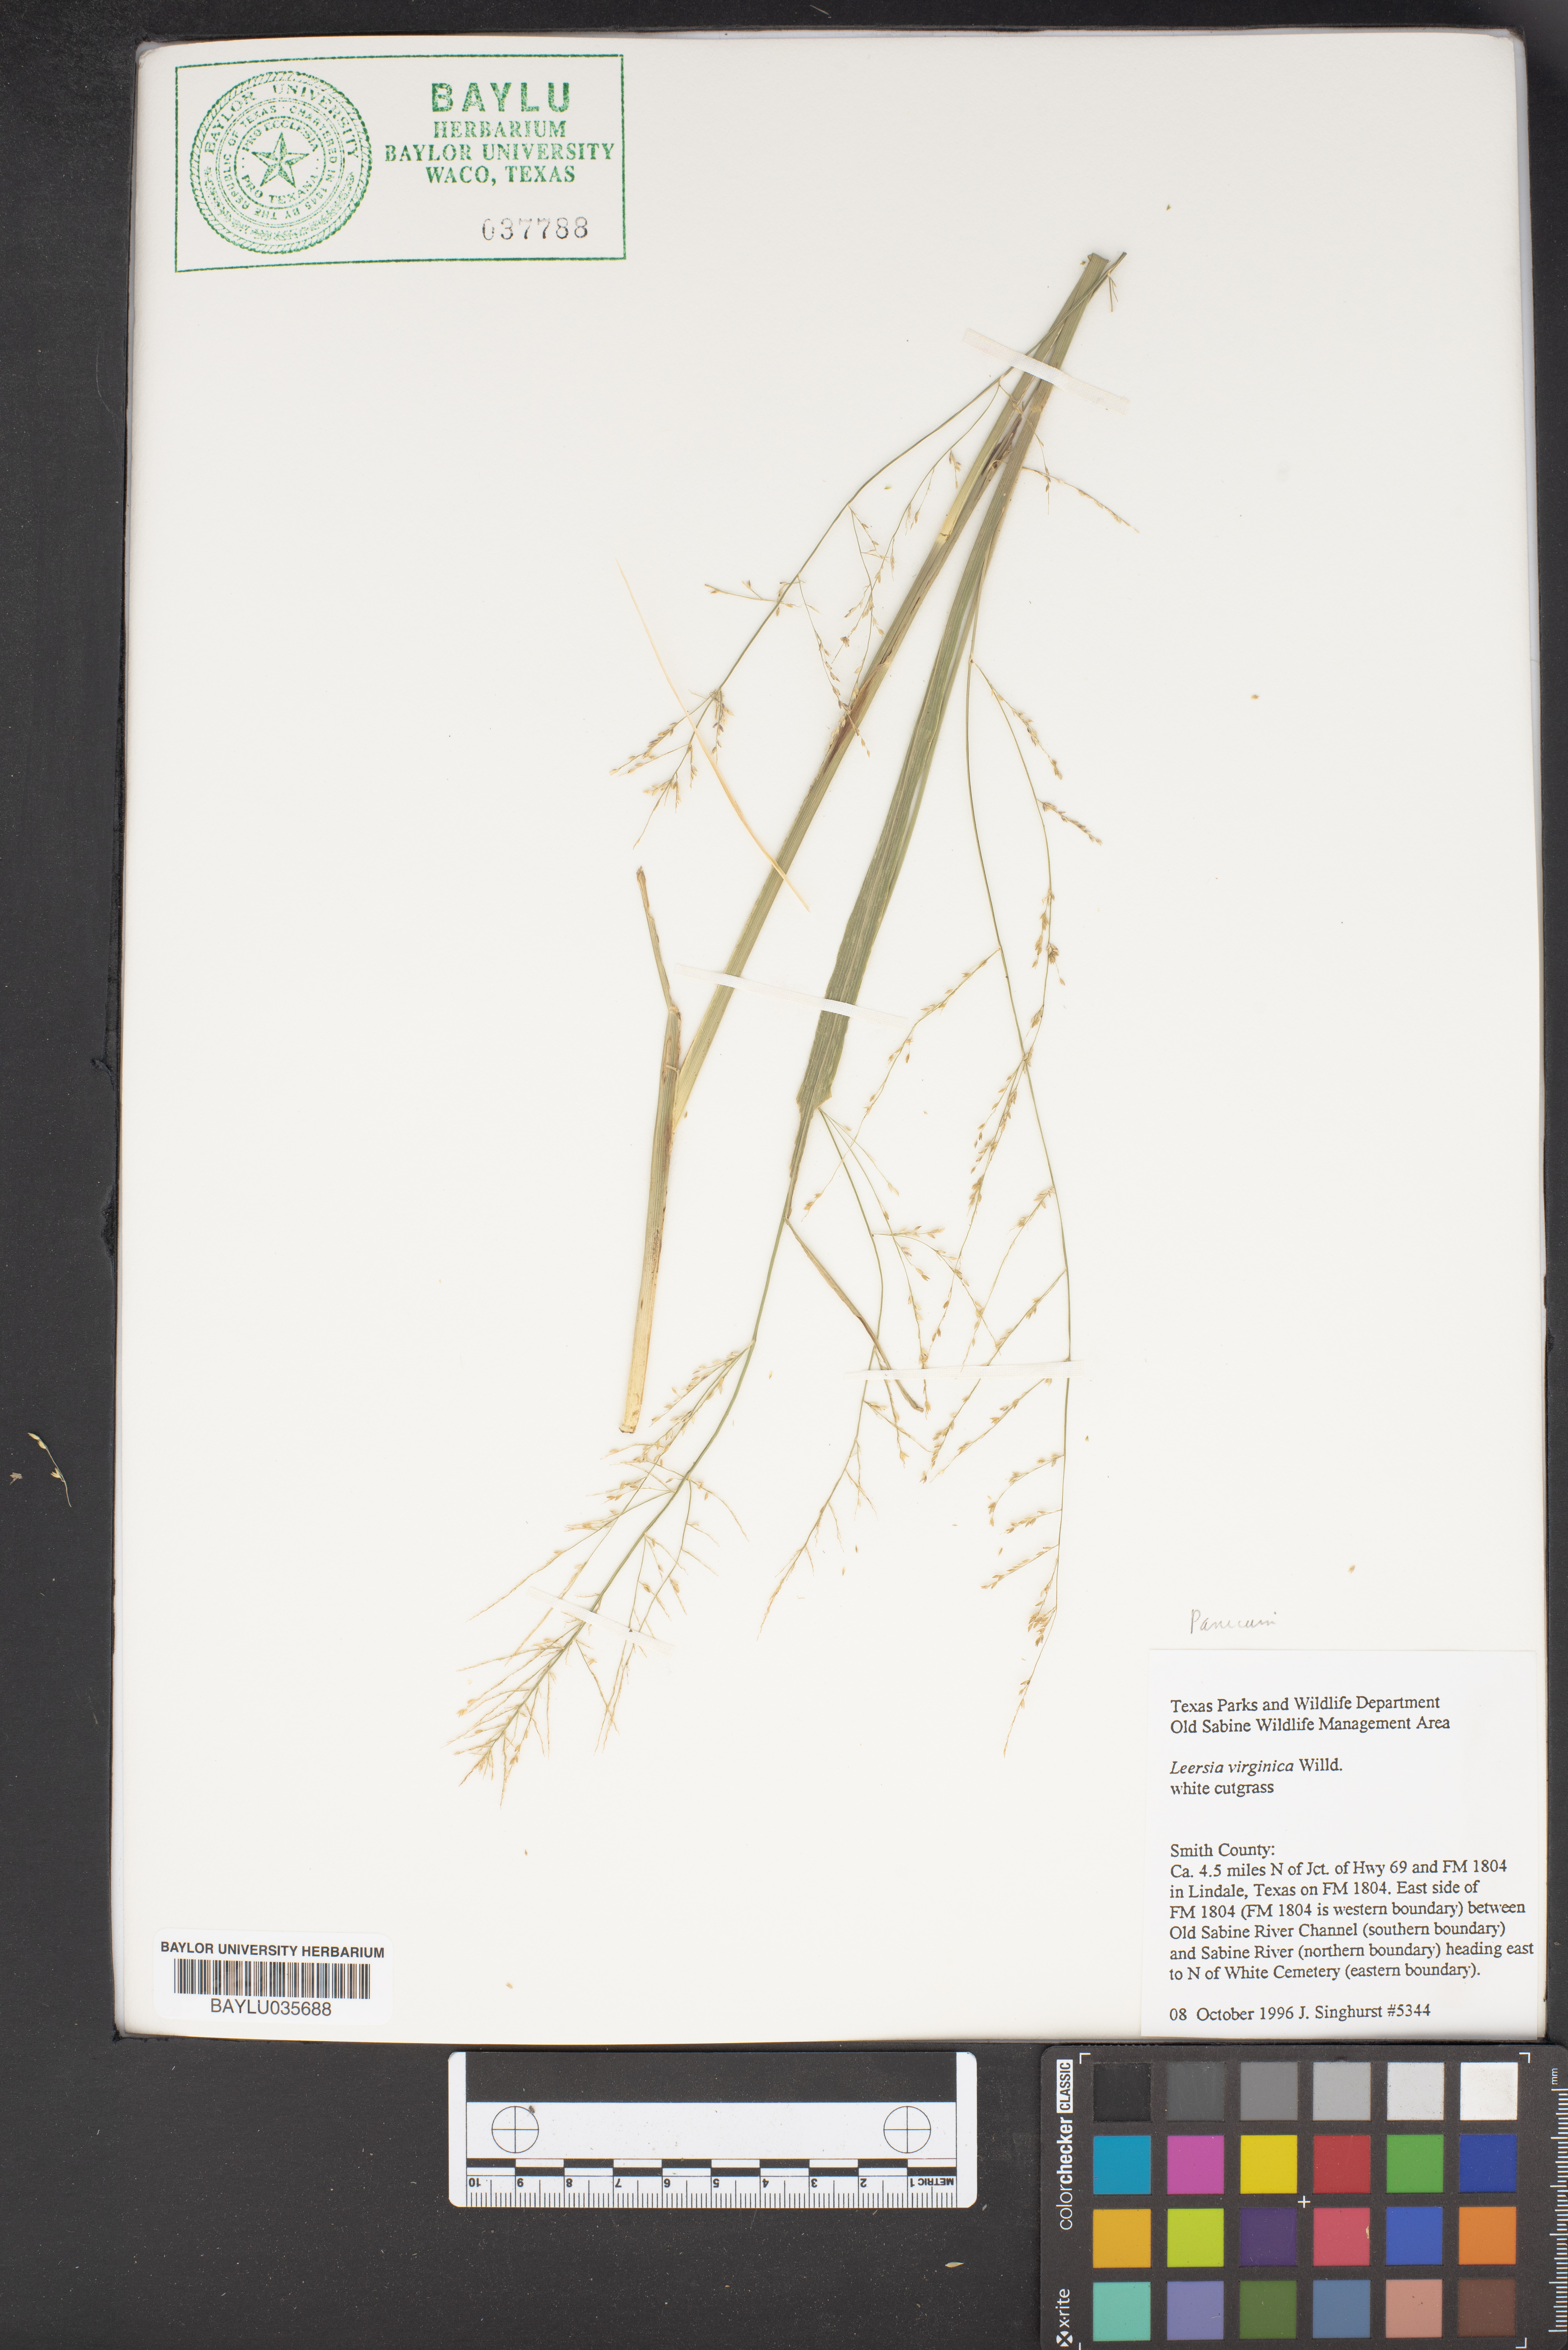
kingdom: Plantae
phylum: Tracheophyta
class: Liliopsida
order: Poales
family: Poaceae
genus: Leersia
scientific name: Leersia virginica
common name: White cutgrass
